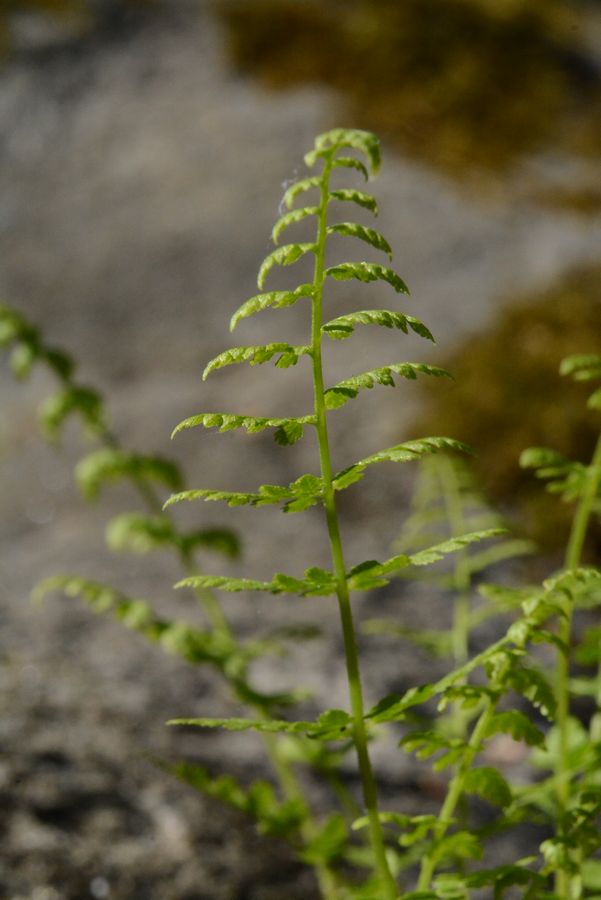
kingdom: Plantae
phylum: Tracheophyta
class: Polypodiopsida
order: Polypodiales
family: Cystopteridaceae
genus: Cystopteris
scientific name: Cystopteris fragilis
